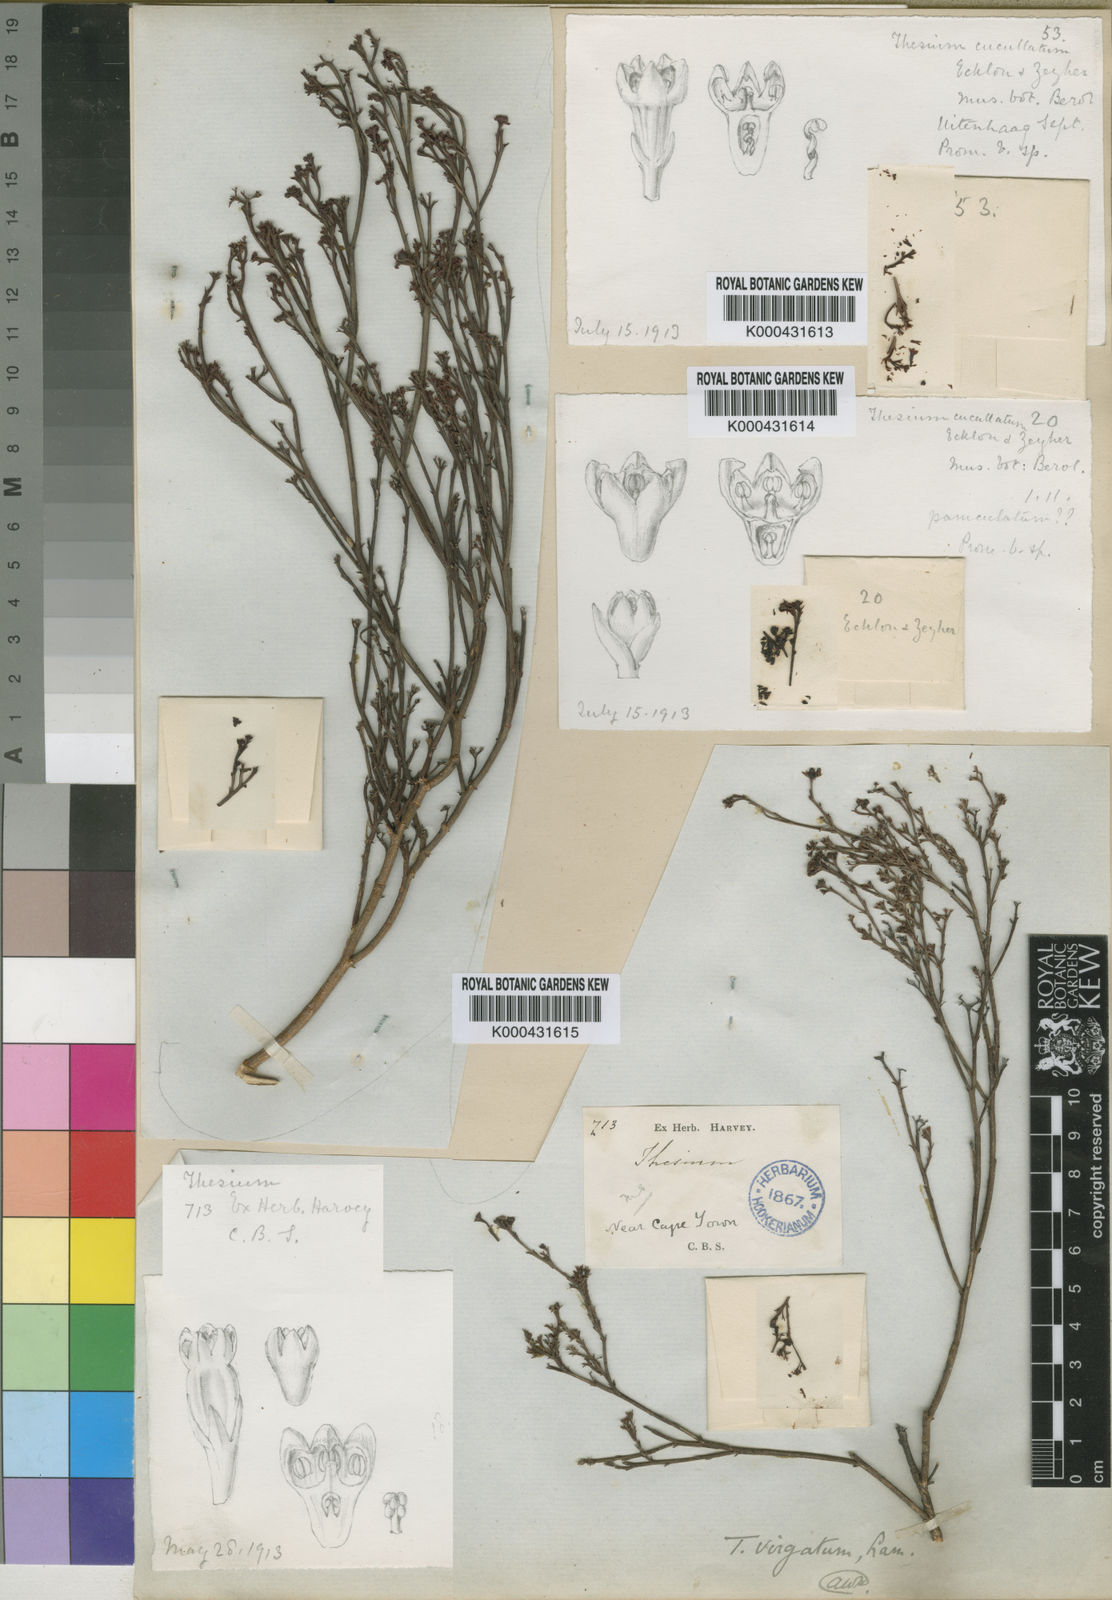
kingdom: Plantae
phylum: Tracheophyta
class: Magnoliopsida
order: Santalales
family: Thesiaceae
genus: Thesium
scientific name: Thesium virgatum
